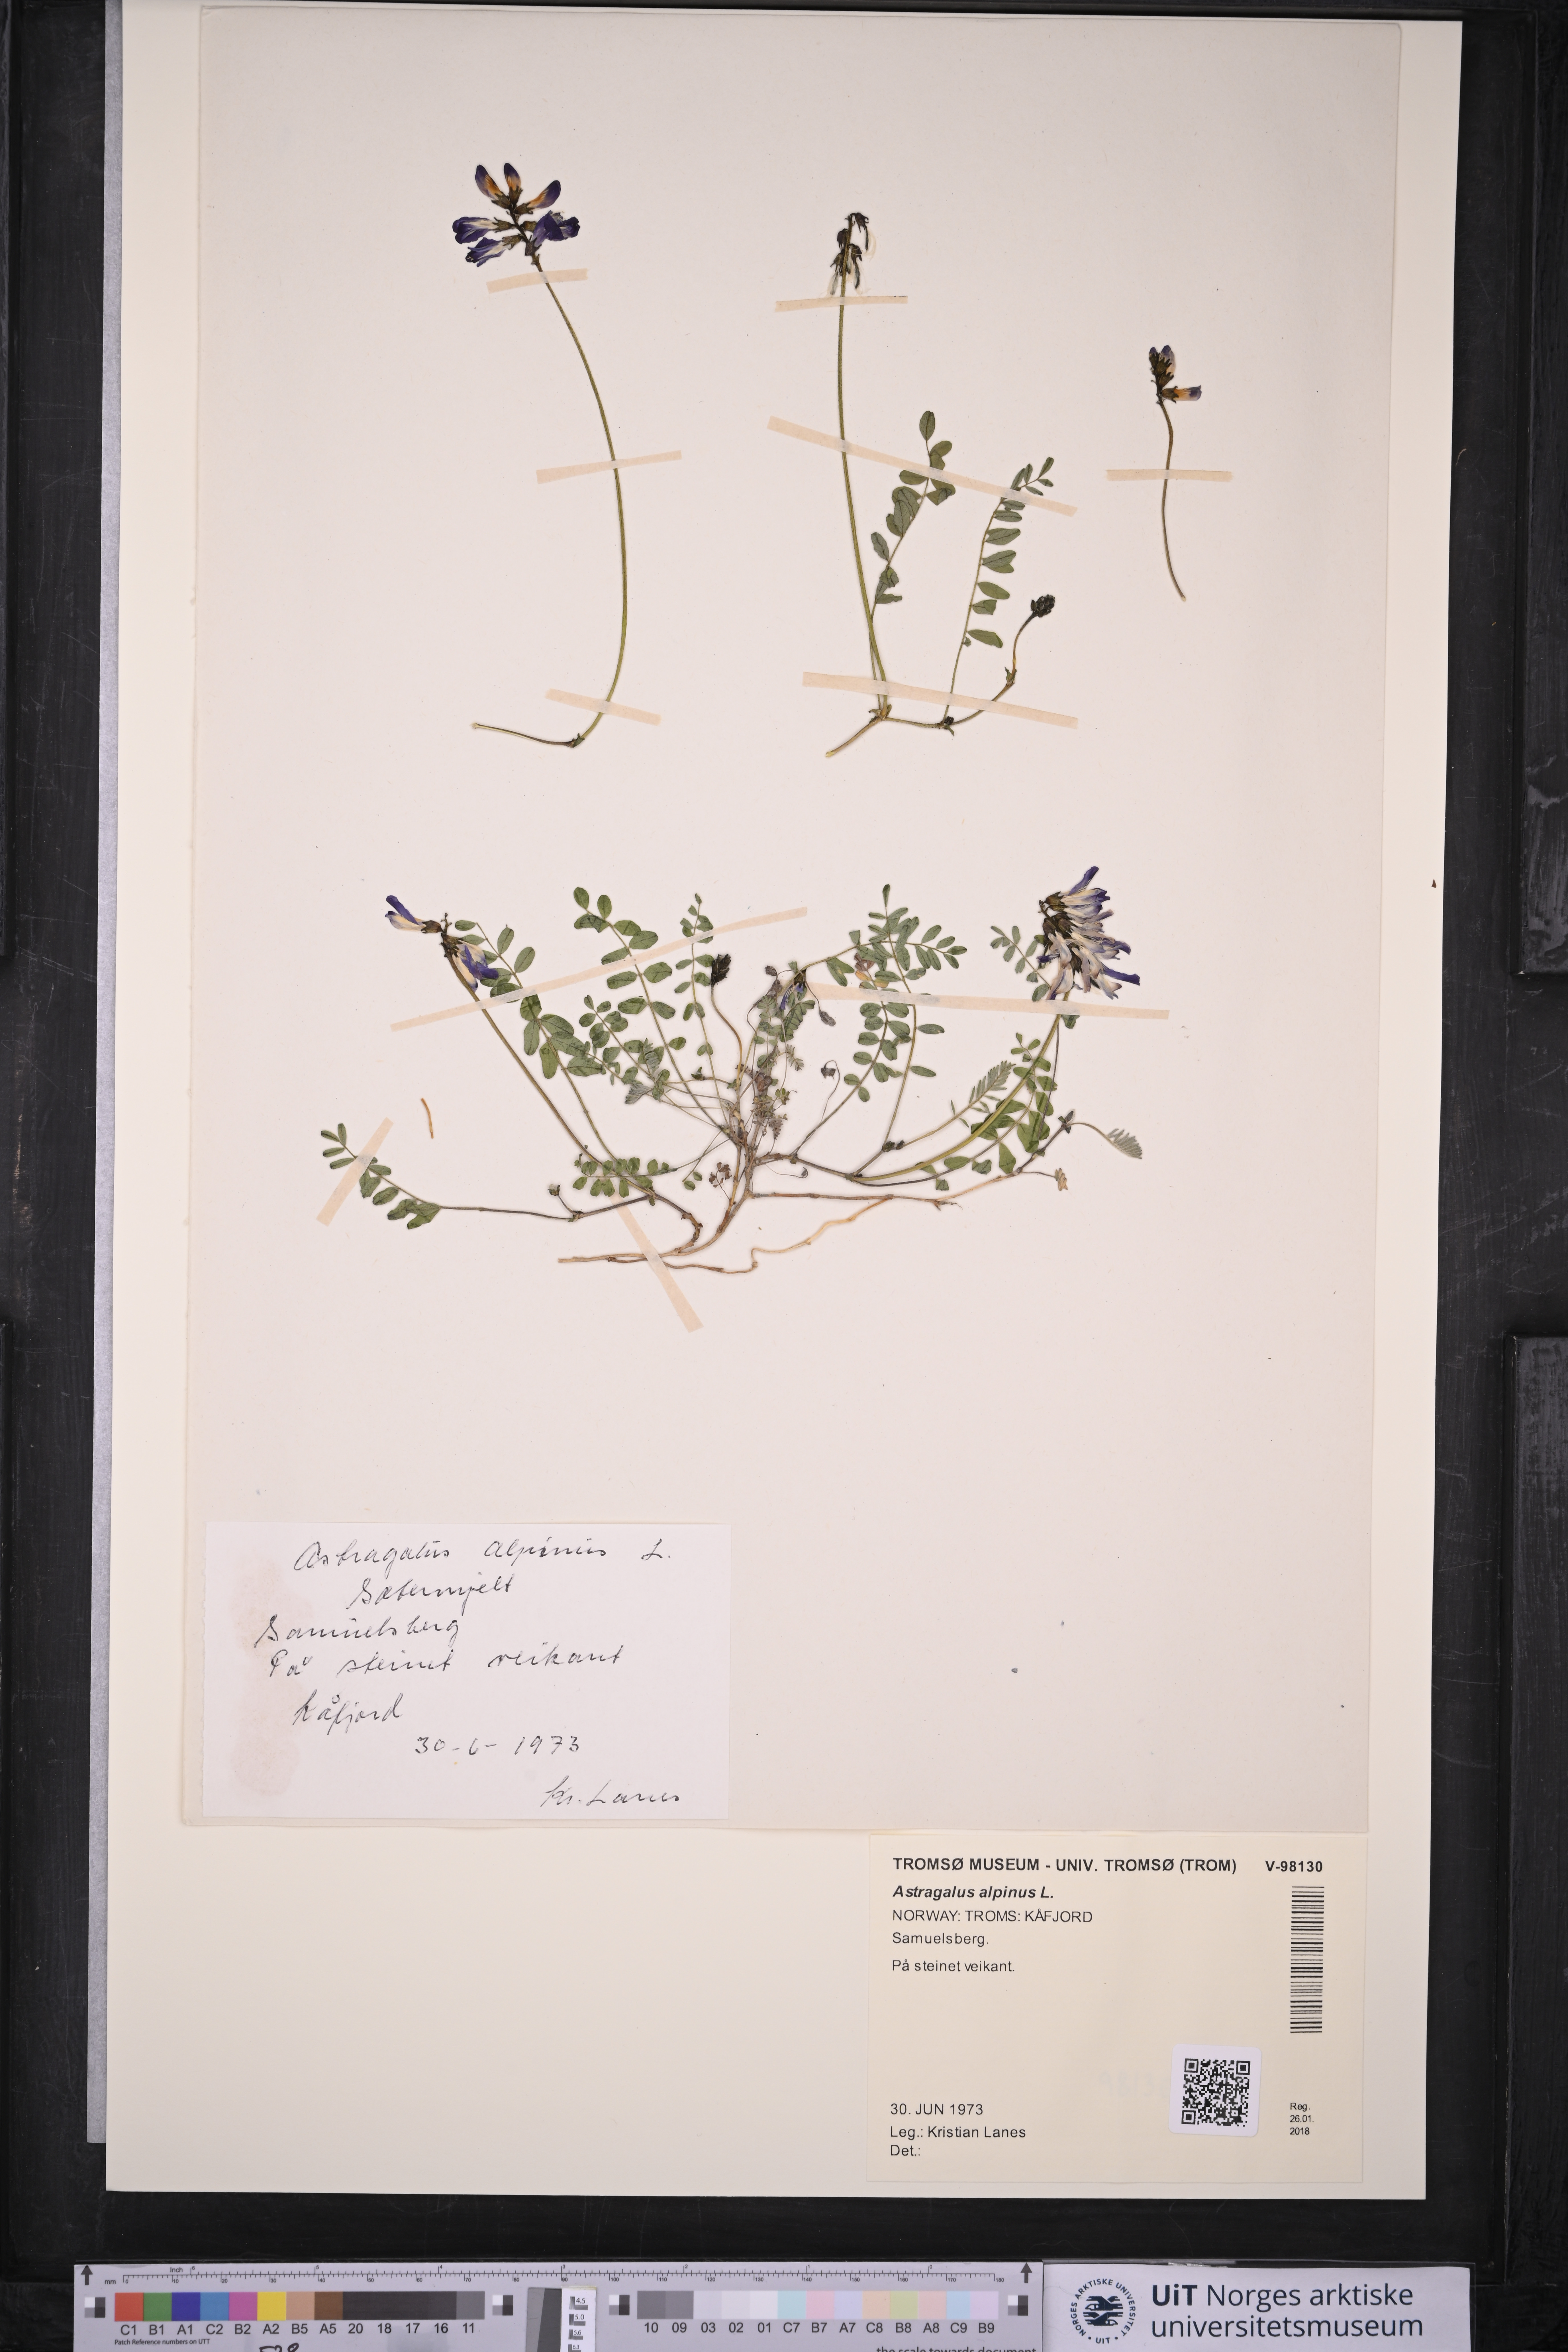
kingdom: Plantae
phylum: Tracheophyta
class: Magnoliopsida
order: Fabales
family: Fabaceae
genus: Astragalus
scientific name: Astragalus alpinus
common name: Alpine milk-vetch
